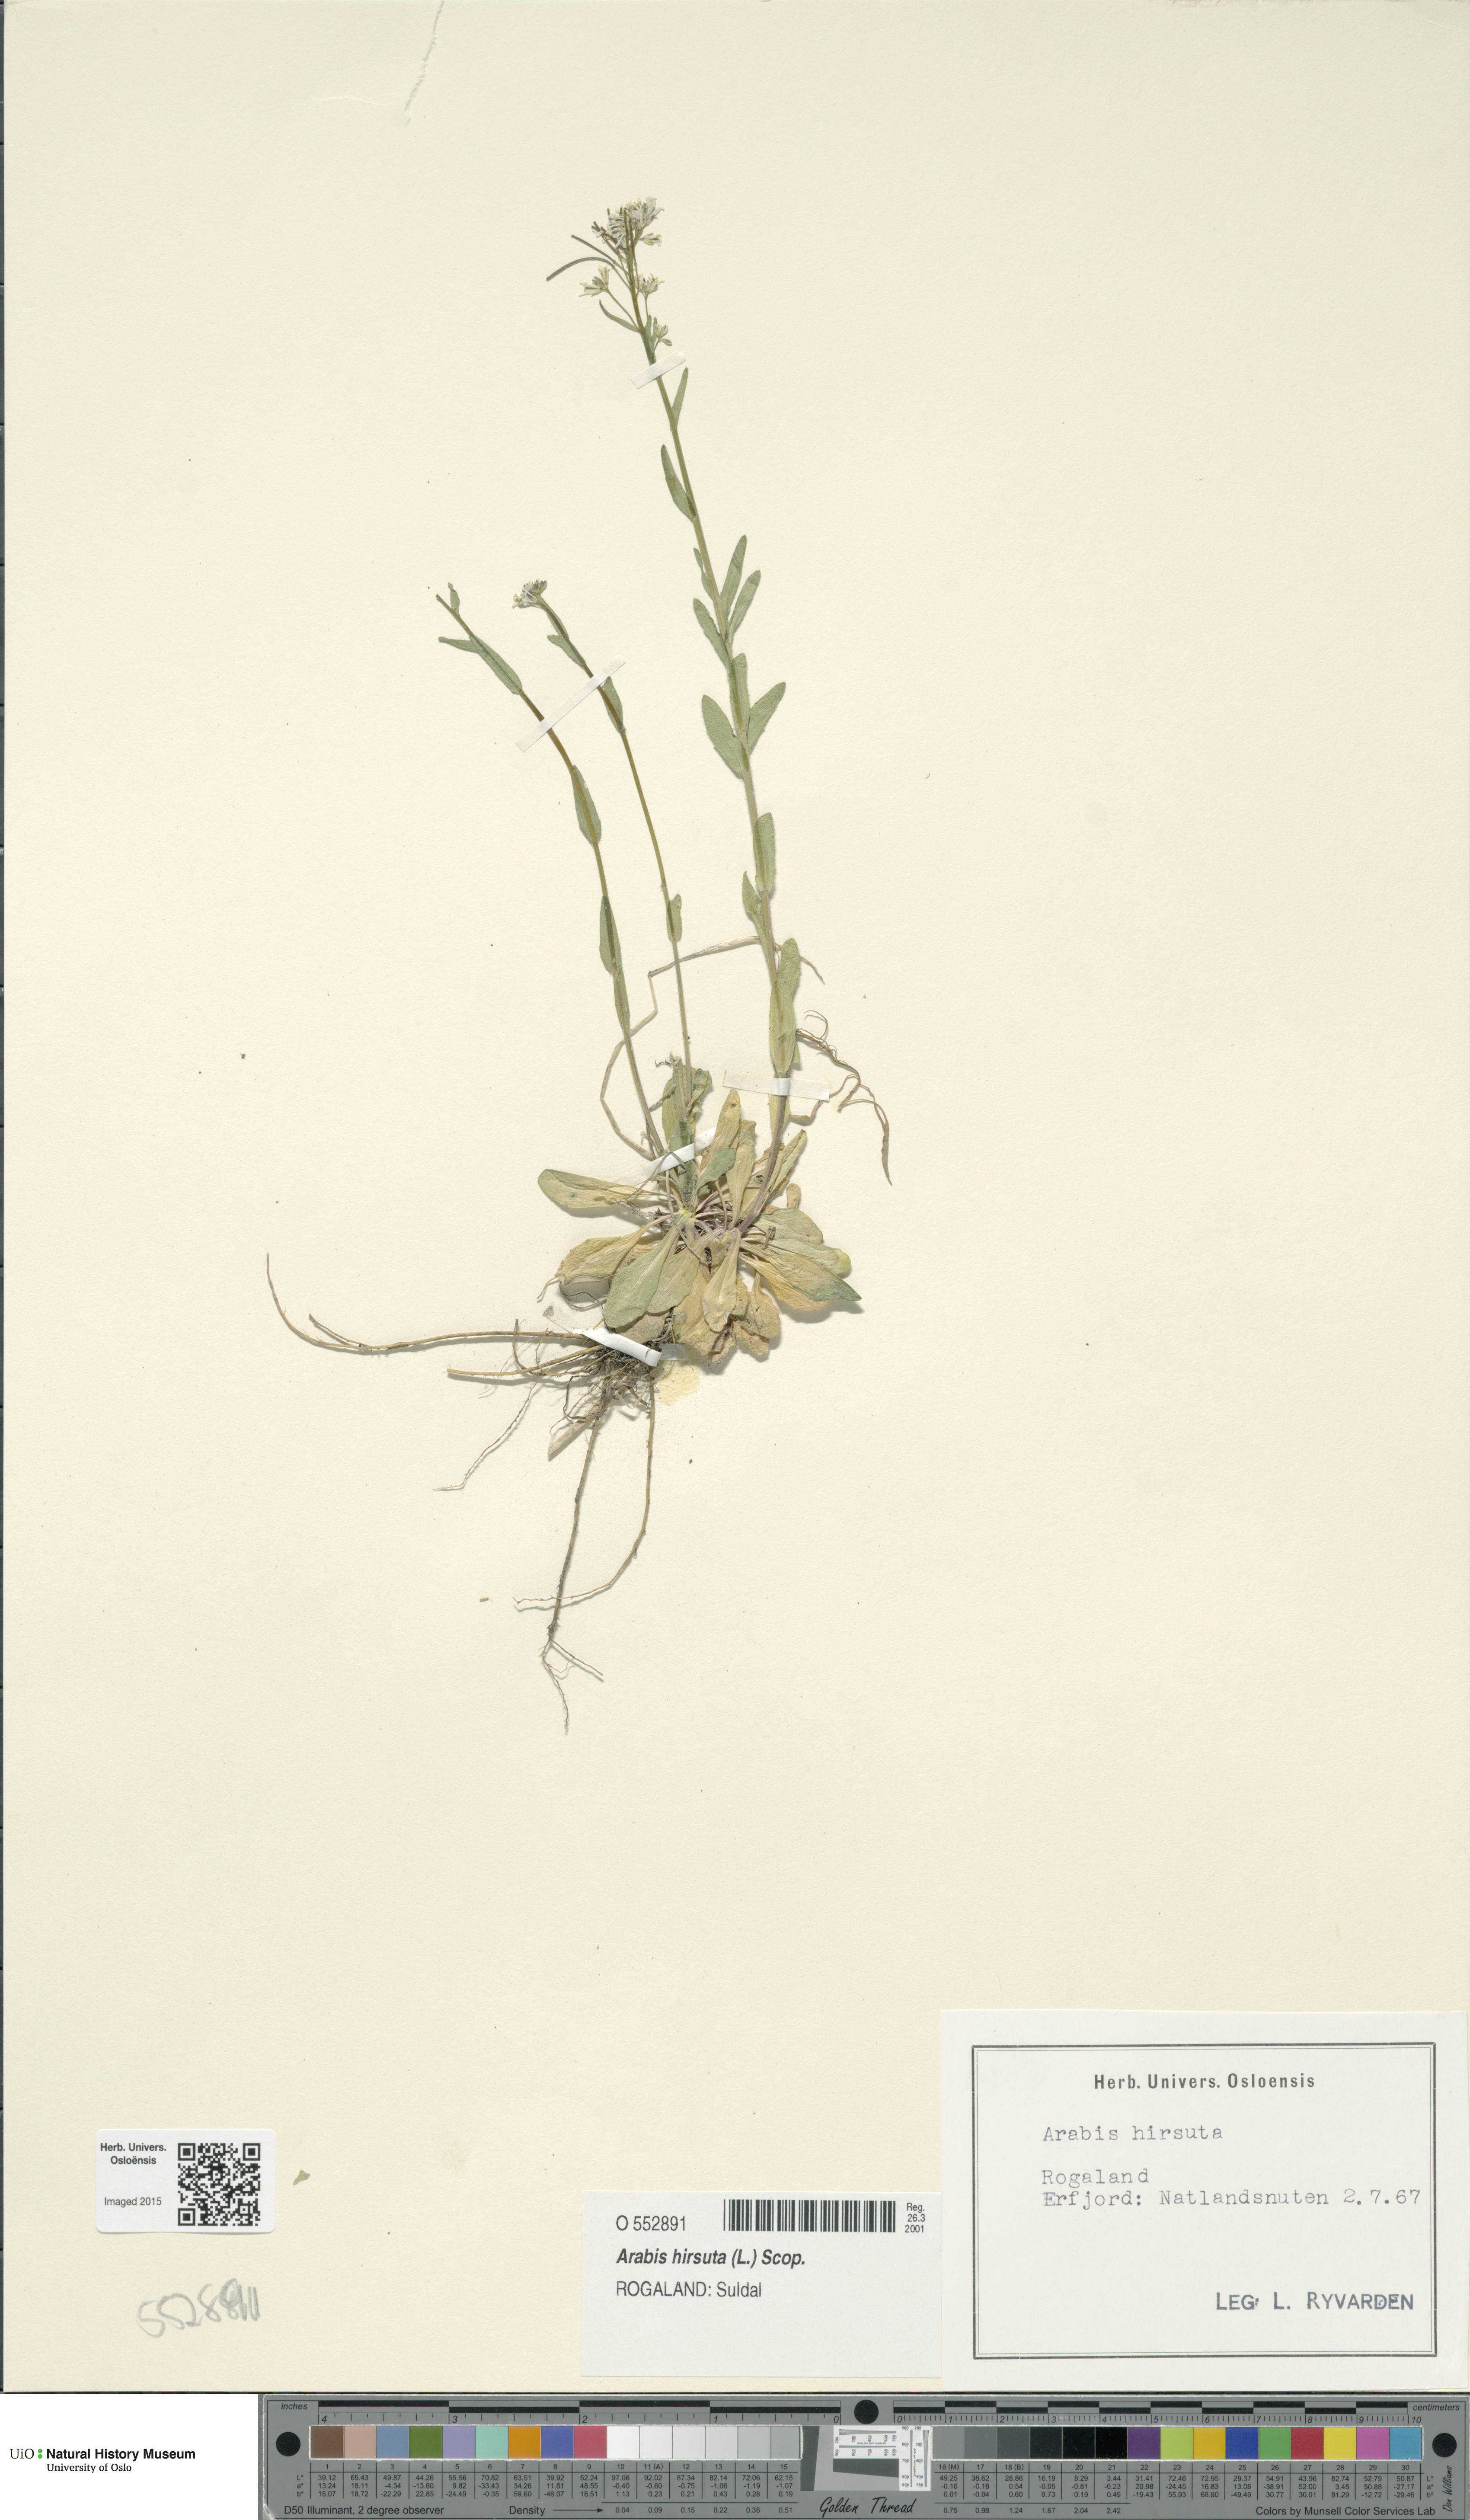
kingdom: Plantae
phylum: Tracheophyta
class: Magnoliopsida
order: Brassicales
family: Brassicaceae
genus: Arabis
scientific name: Arabis hirsuta
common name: Hairy rock-cress
